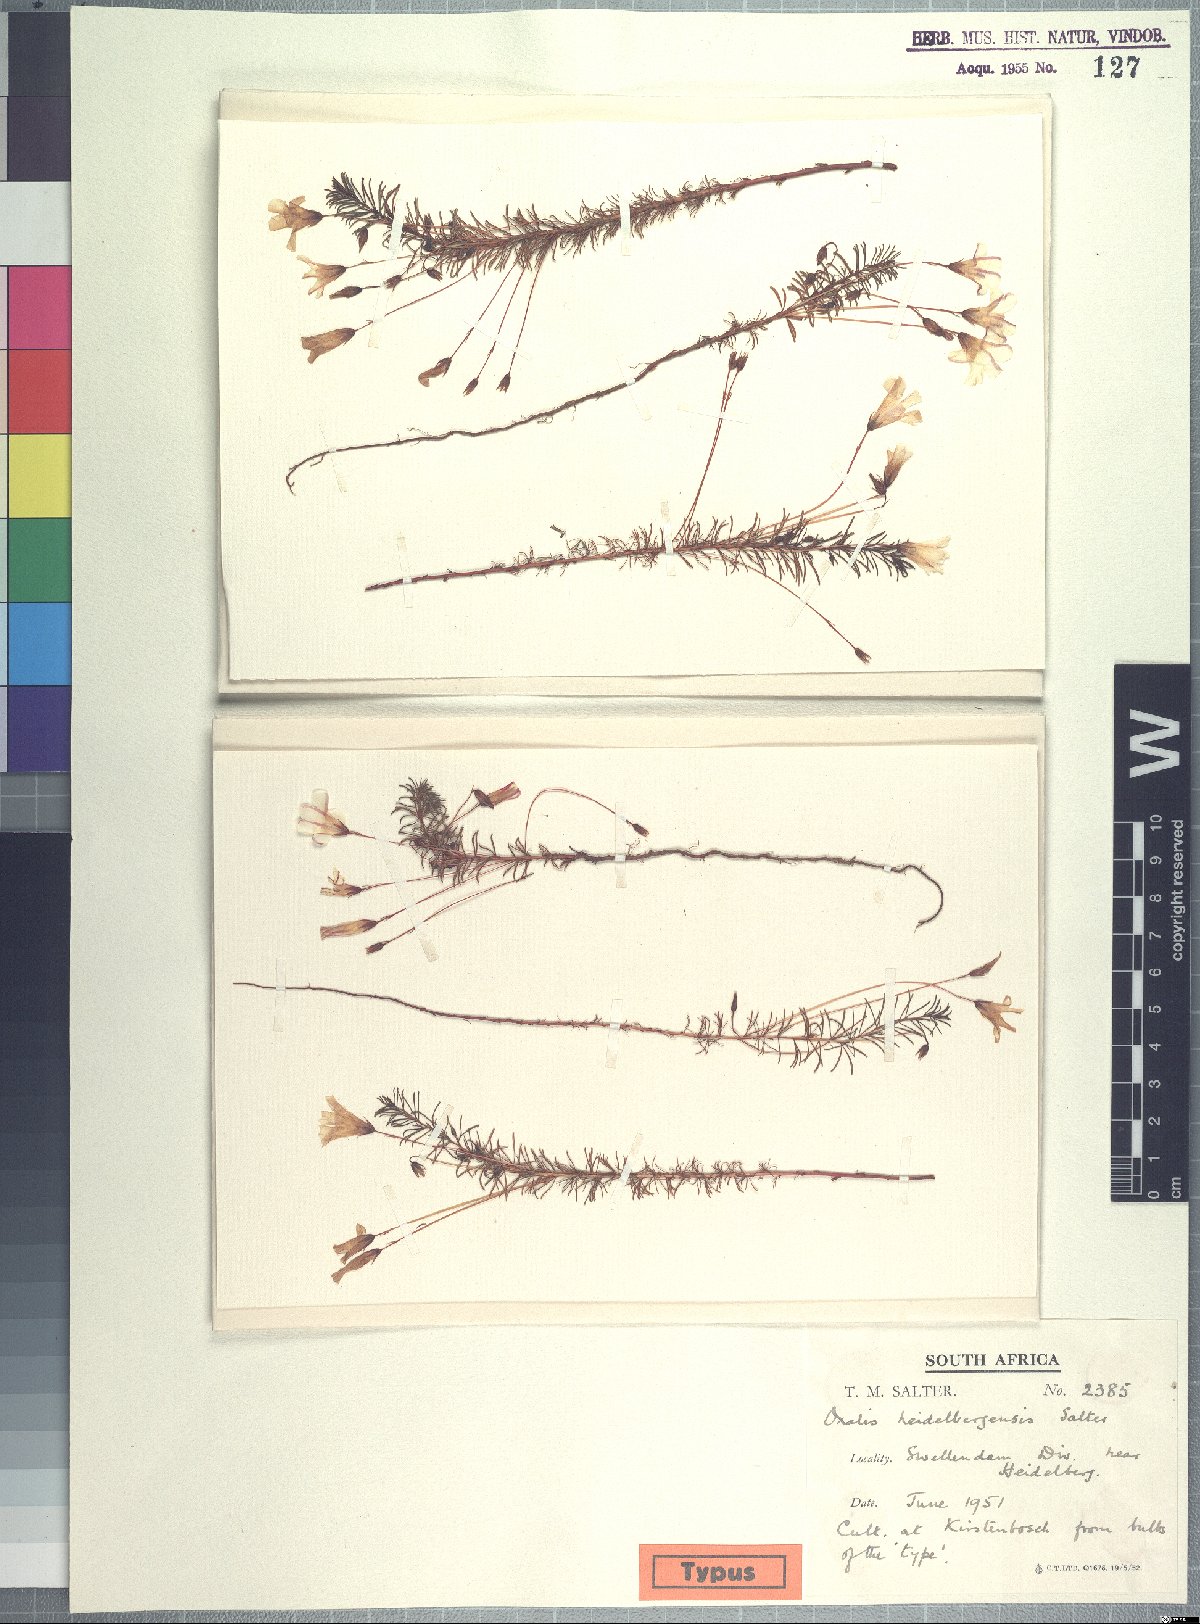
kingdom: Plantae
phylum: Tracheophyta
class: Magnoliopsida
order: Oxalidales
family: Oxalidaceae
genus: Oxalis
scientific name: Oxalis heidelbergensis
